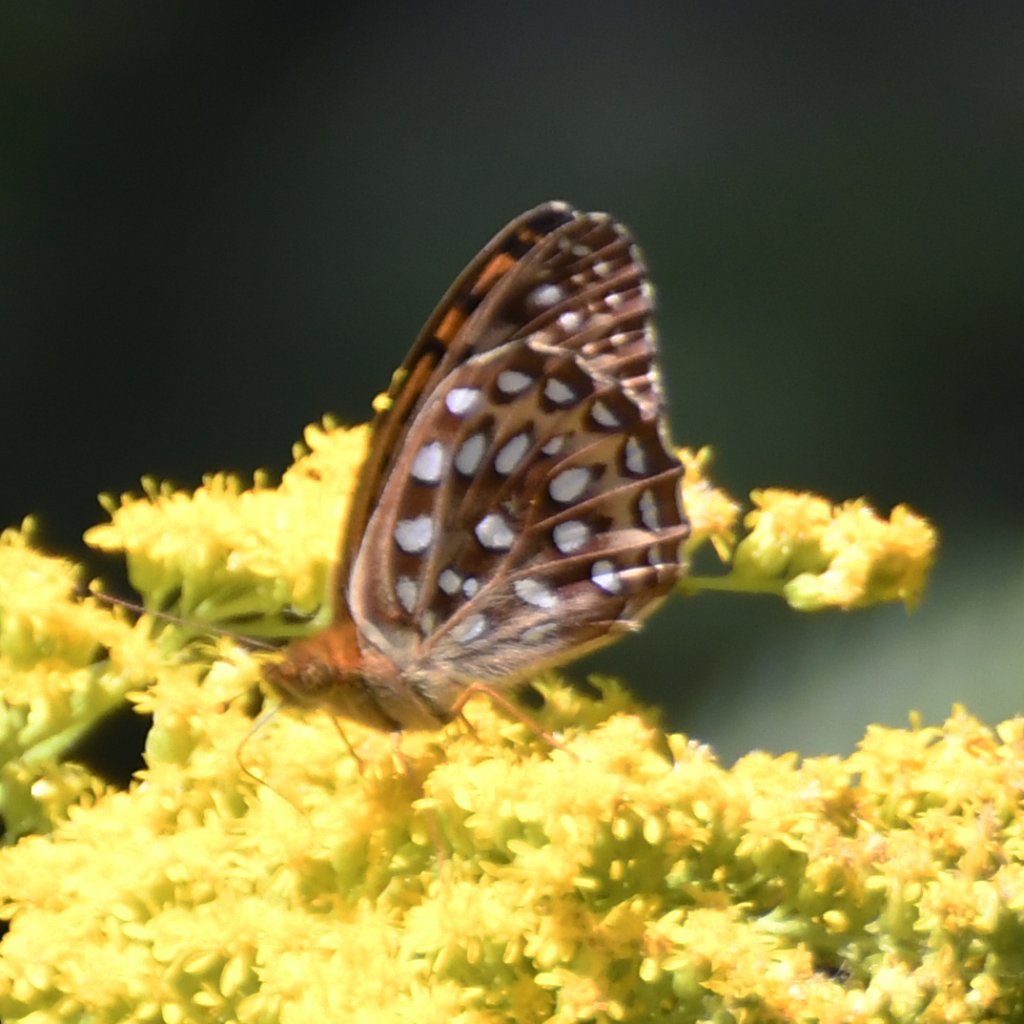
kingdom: Animalia
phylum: Arthropoda
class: Insecta
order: Lepidoptera
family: Nymphalidae
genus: Speyeria
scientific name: Speyeria aphrodite
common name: Aphrodite Fritillary
